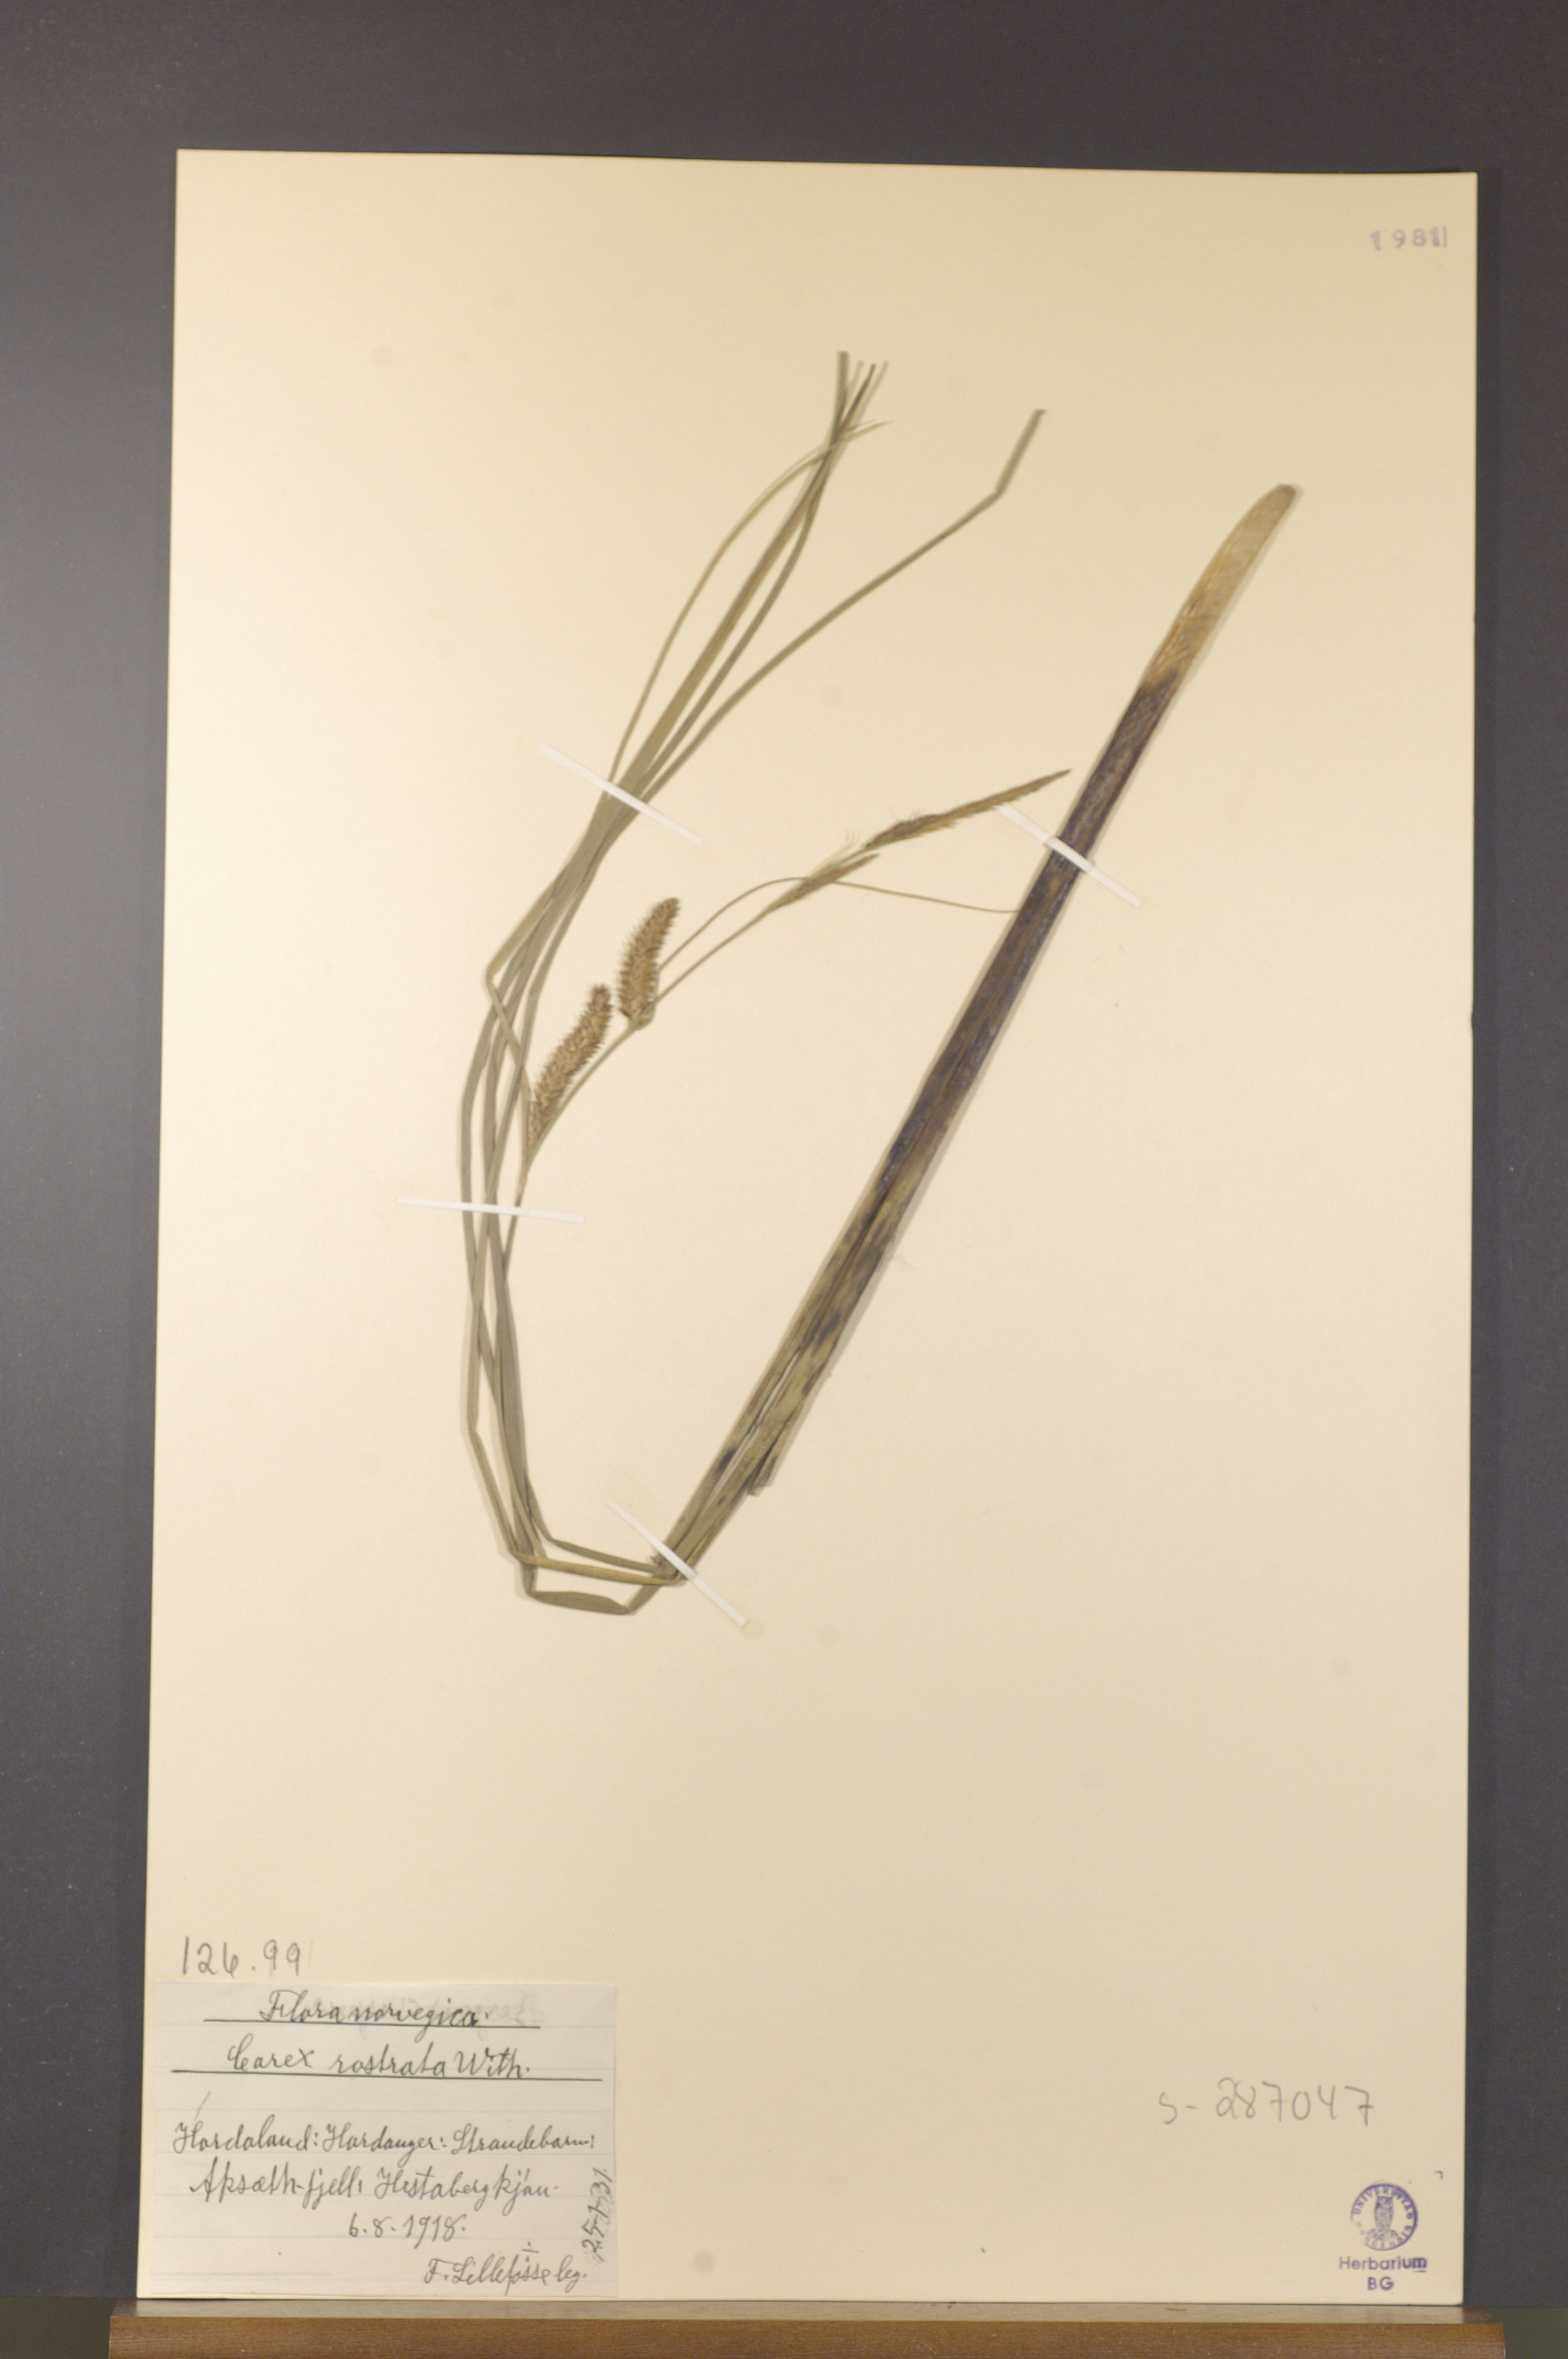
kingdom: Plantae
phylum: Tracheophyta
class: Liliopsida
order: Poales
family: Cyperaceae
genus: Carex
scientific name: Carex rostrata
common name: Bottle sedge
